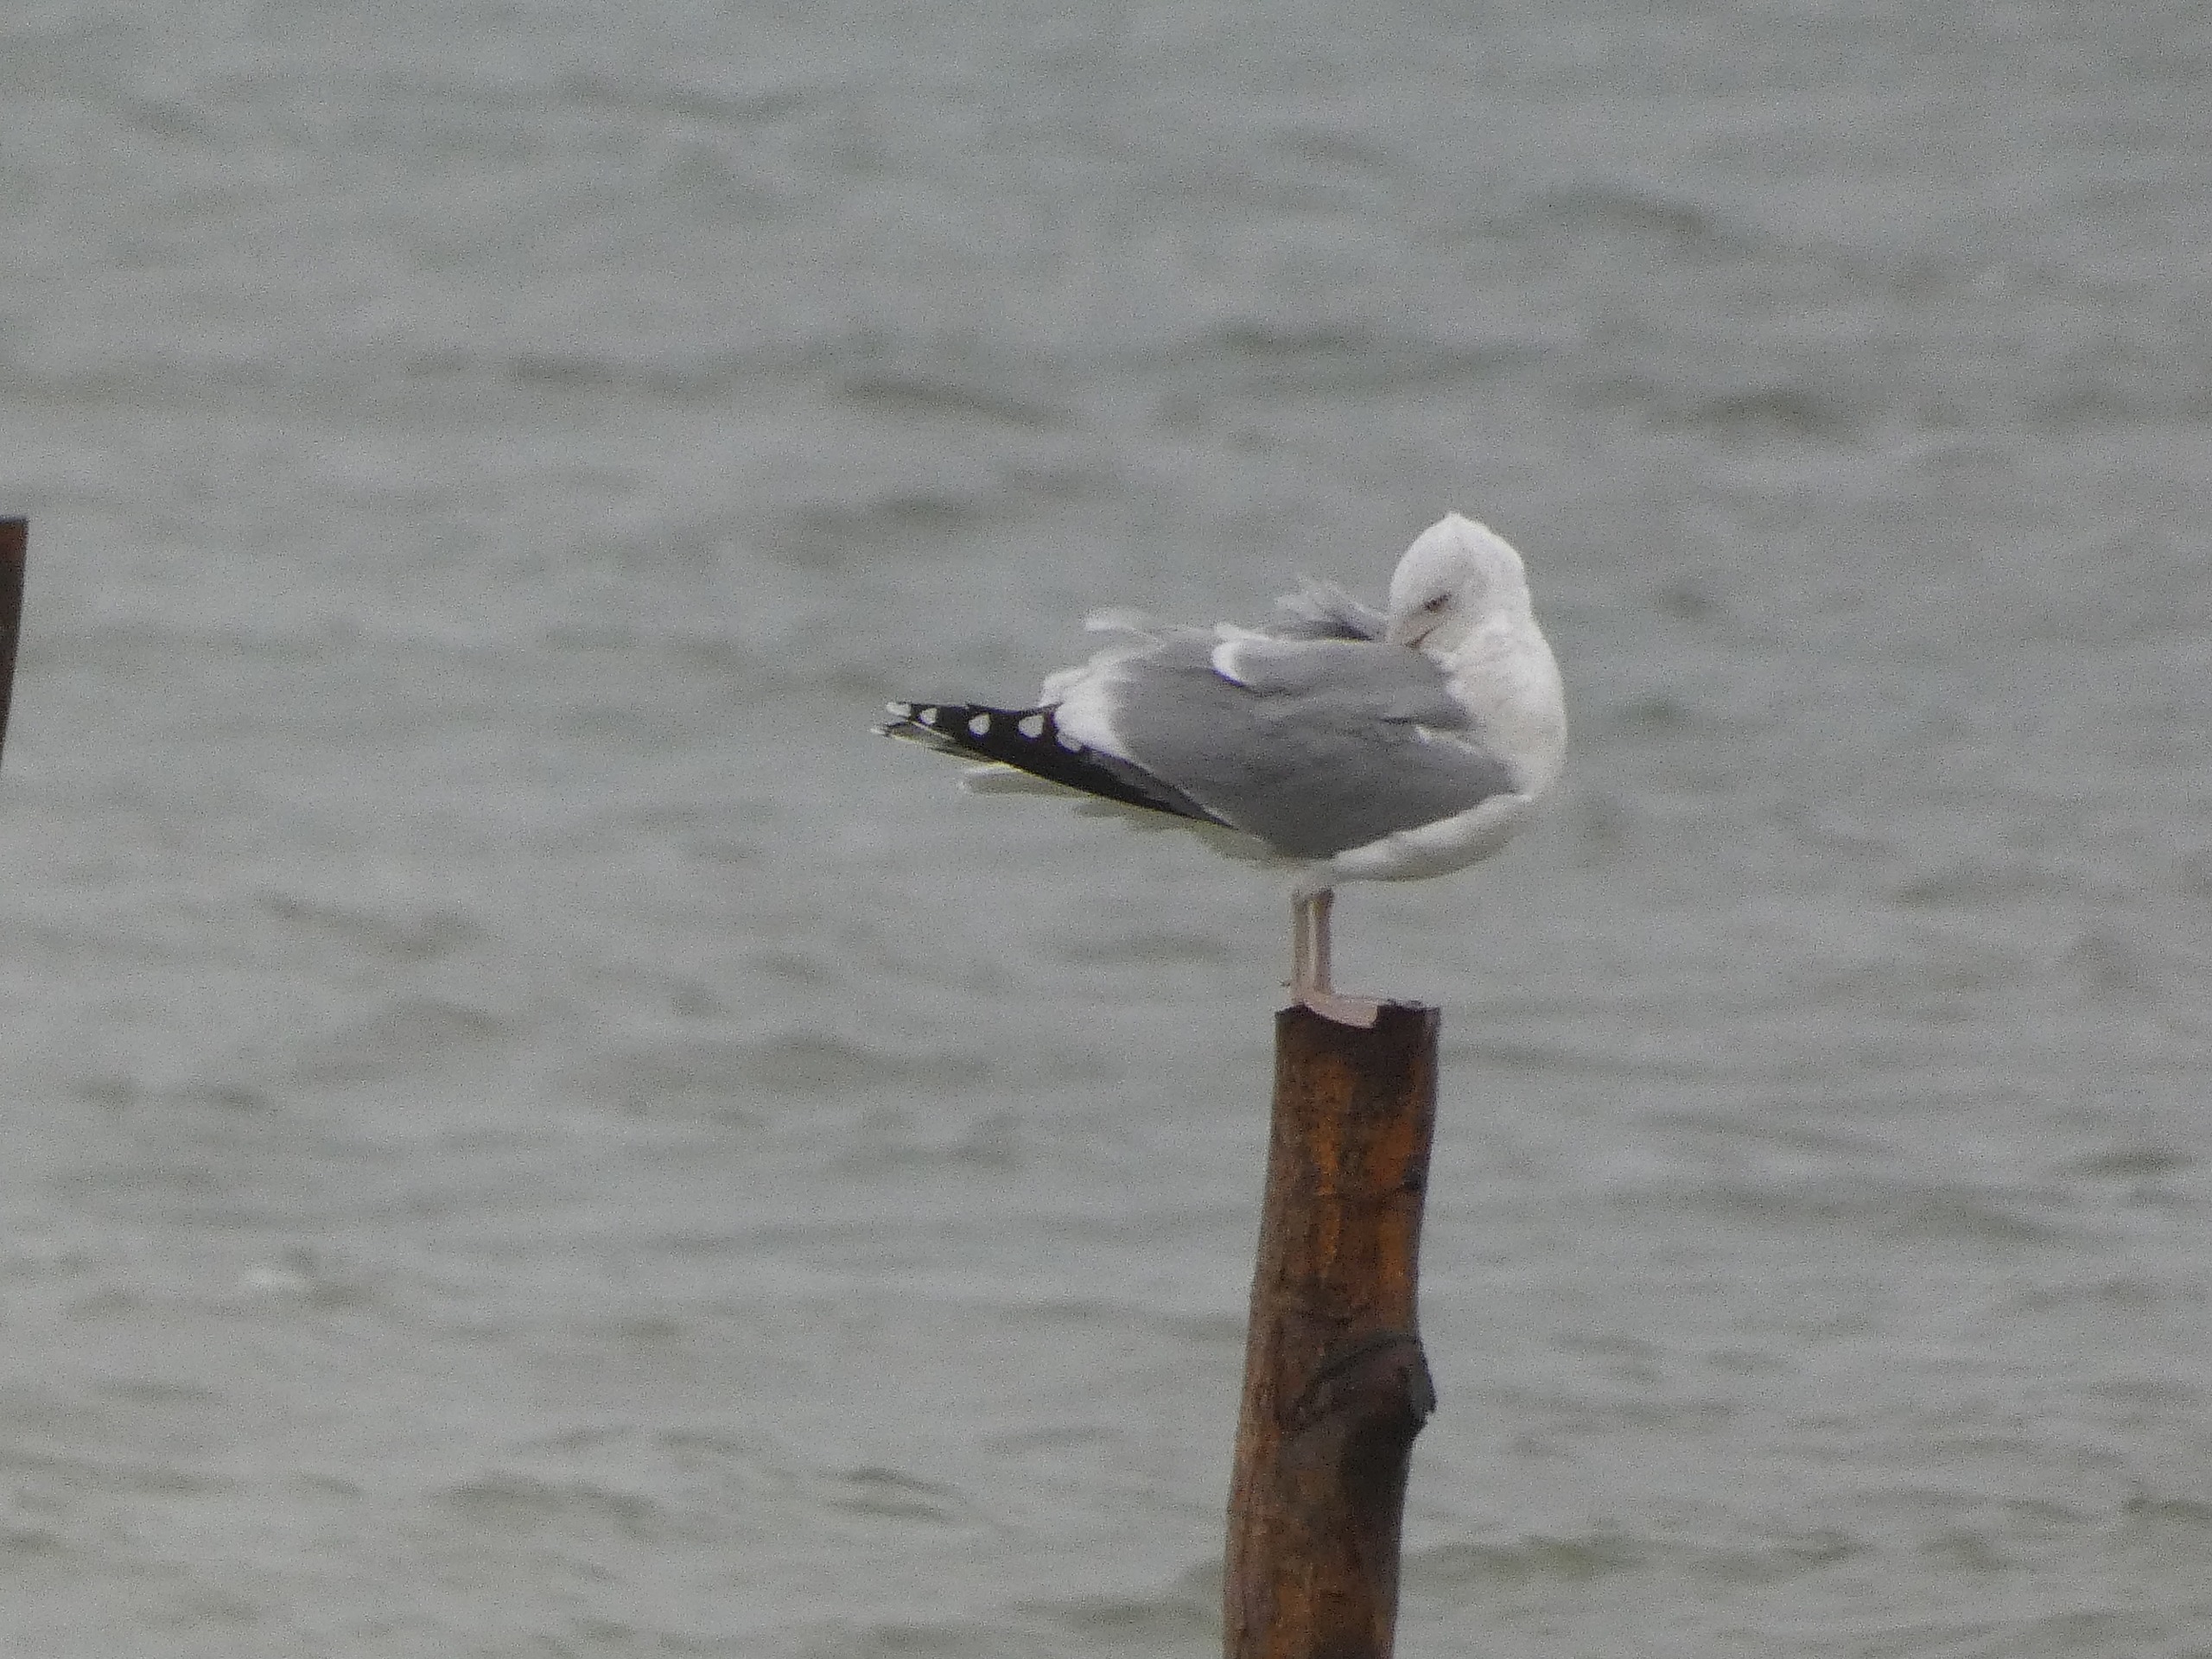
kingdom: Animalia
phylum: Chordata
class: Aves
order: Charadriiformes
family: Laridae
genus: Larus
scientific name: Larus argentatus
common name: Sølvmåge
